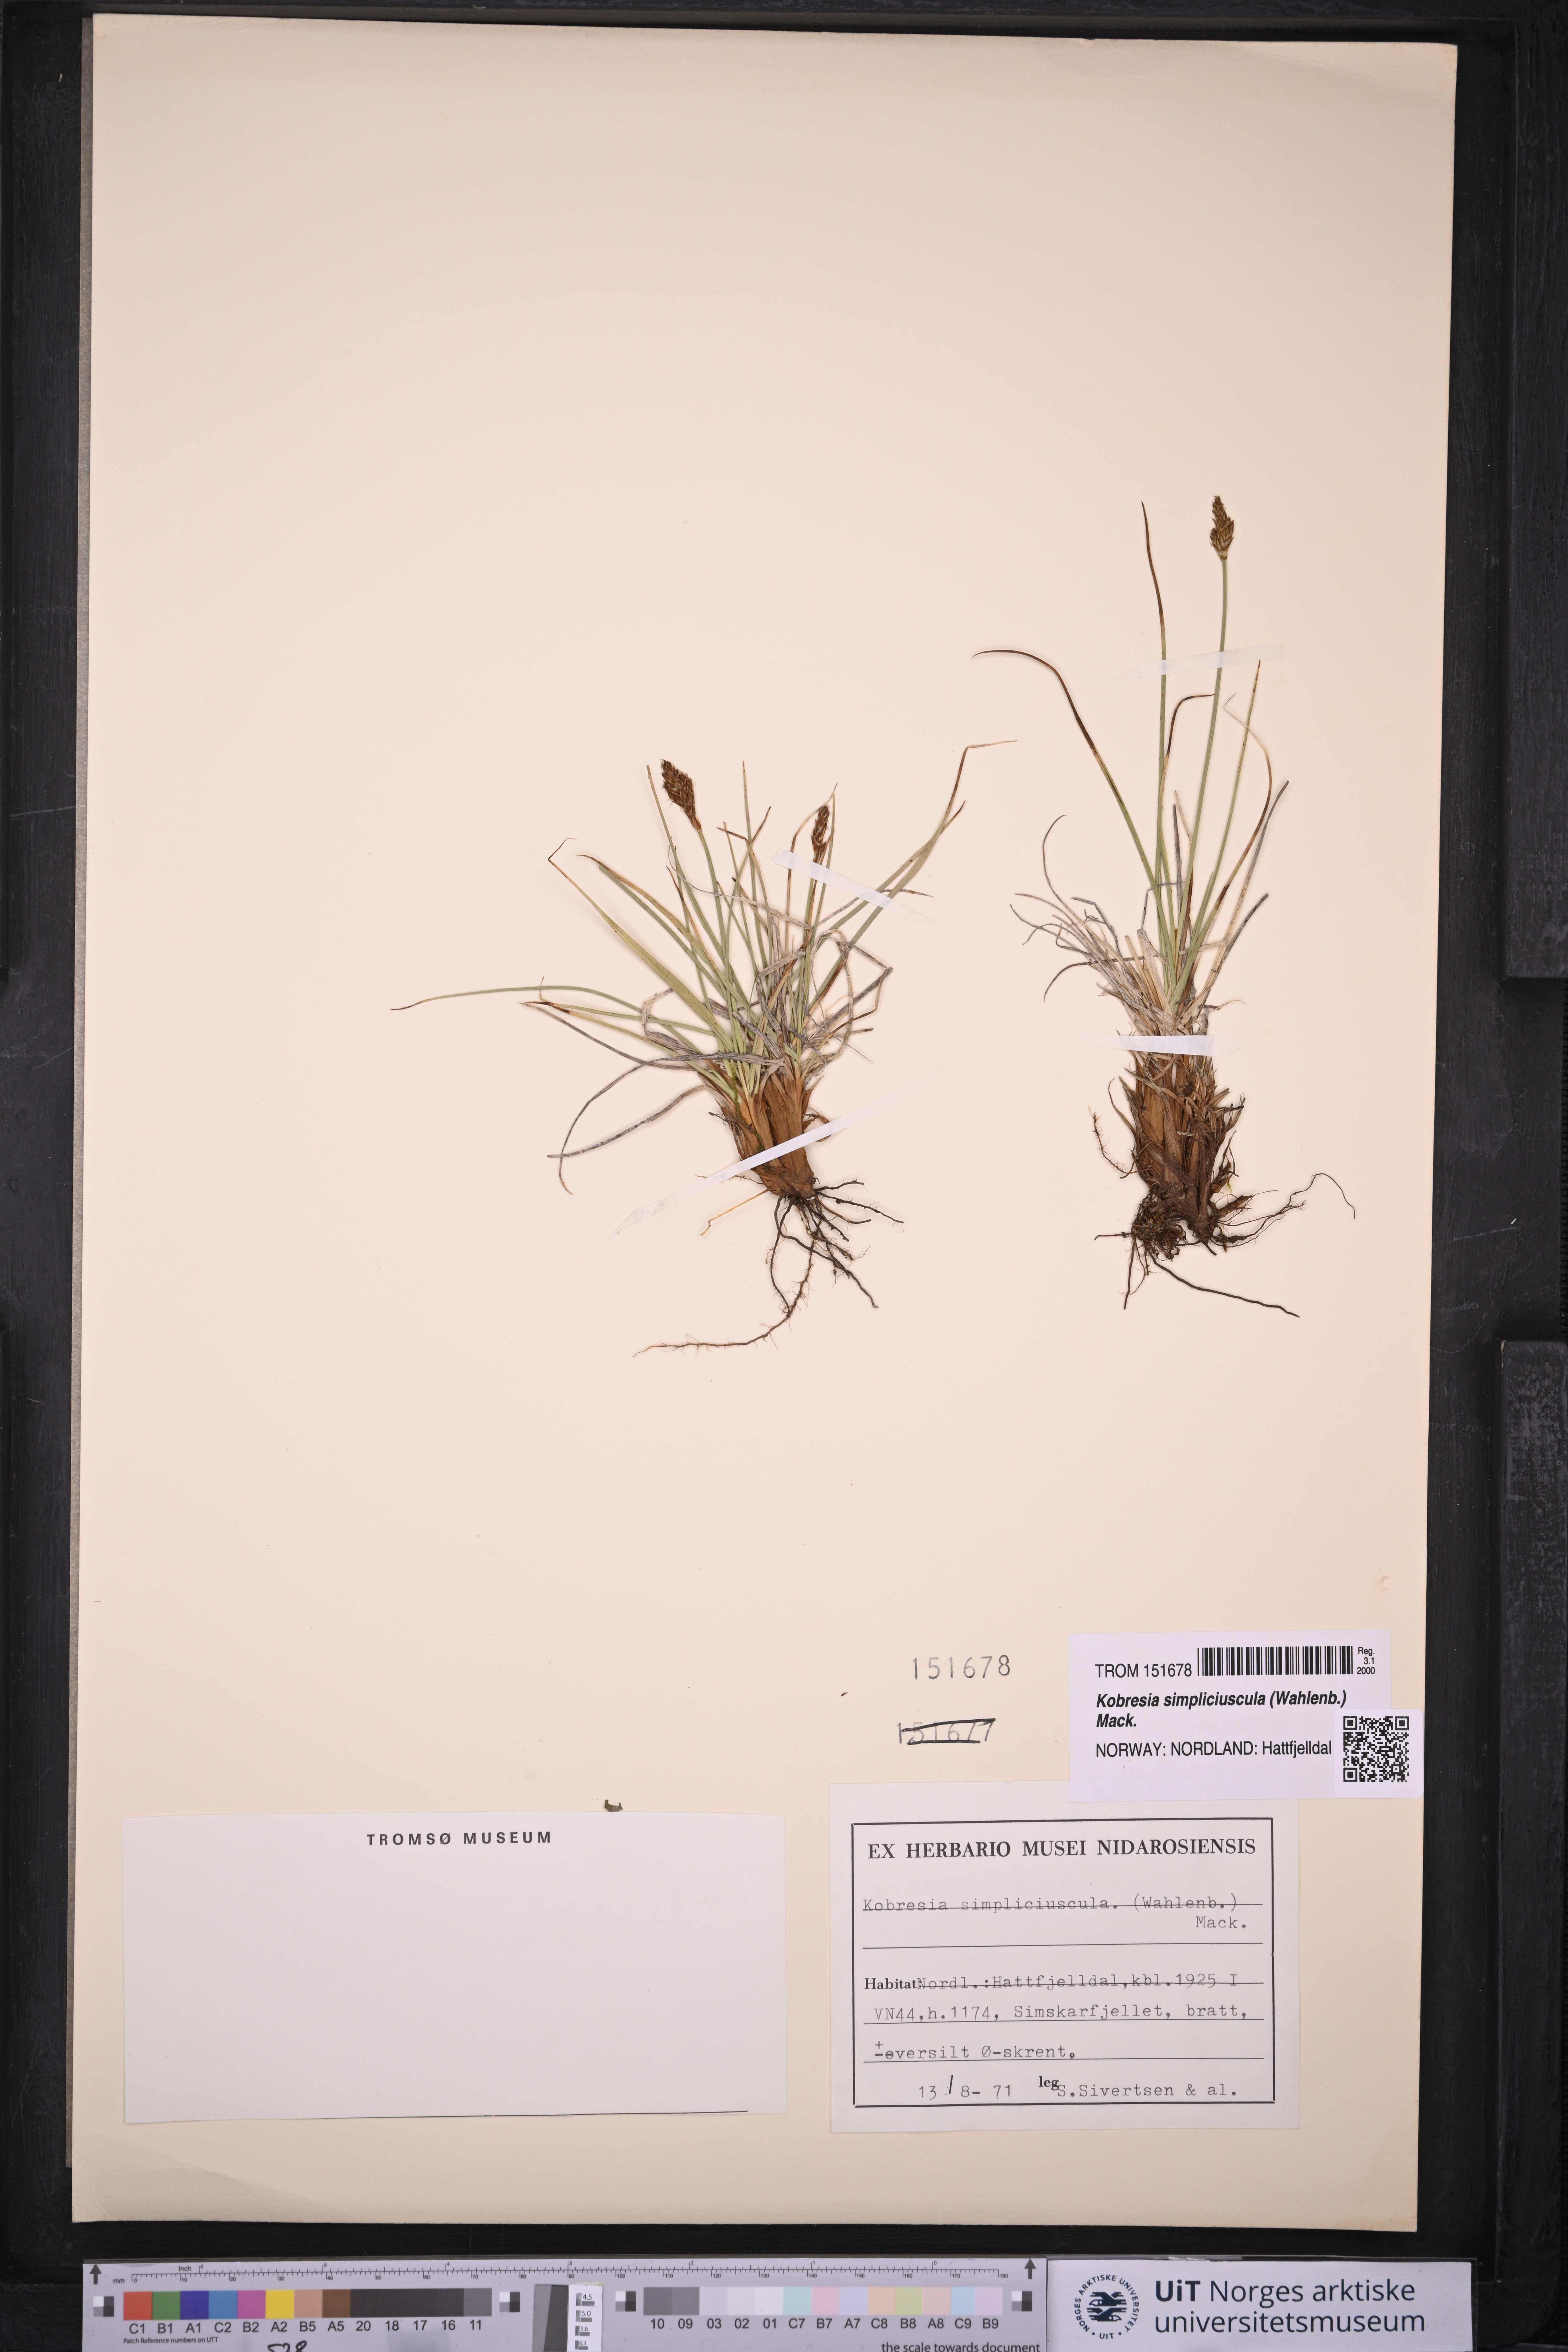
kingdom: Plantae
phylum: Tracheophyta
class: Liliopsida
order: Poales
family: Cyperaceae
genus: Carex
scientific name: Carex simpliciuscula
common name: Simple bog sedge
